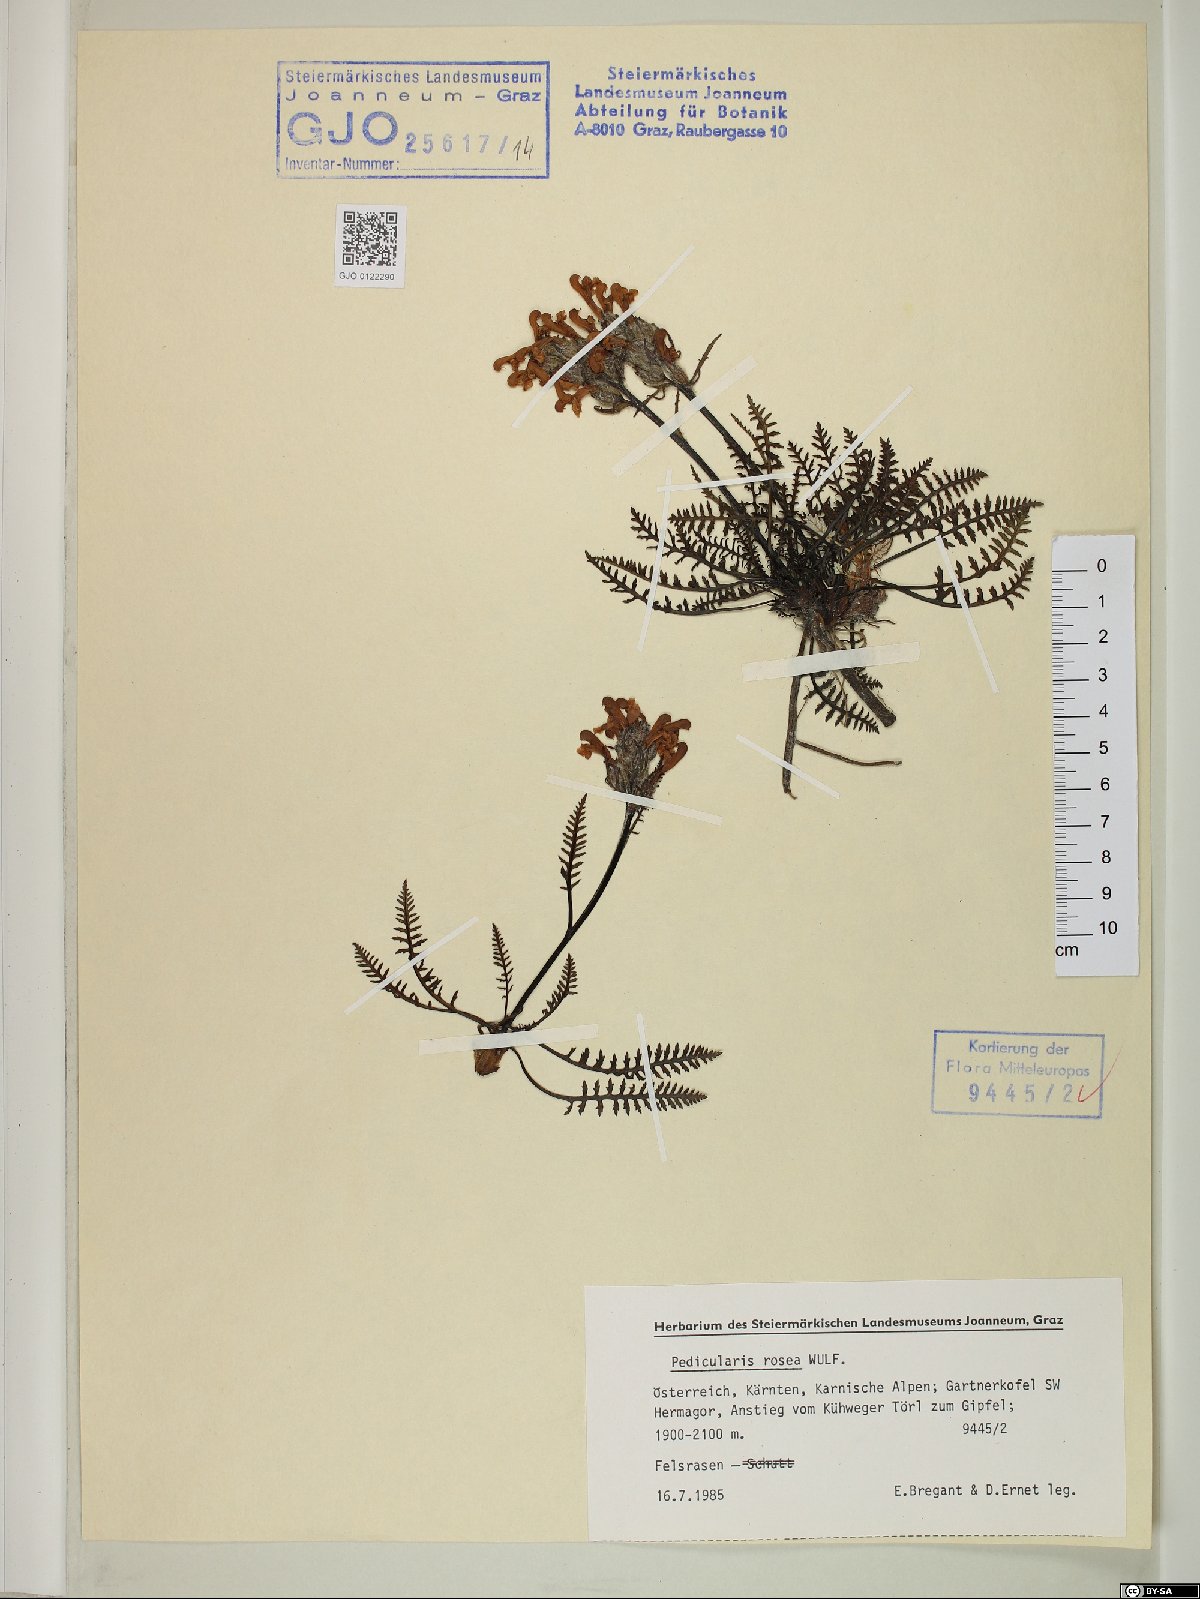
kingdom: Plantae
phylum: Tracheophyta
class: Magnoliopsida
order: Lamiales
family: Orobanchaceae
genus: Pedicularis
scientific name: Pedicularis rosea
